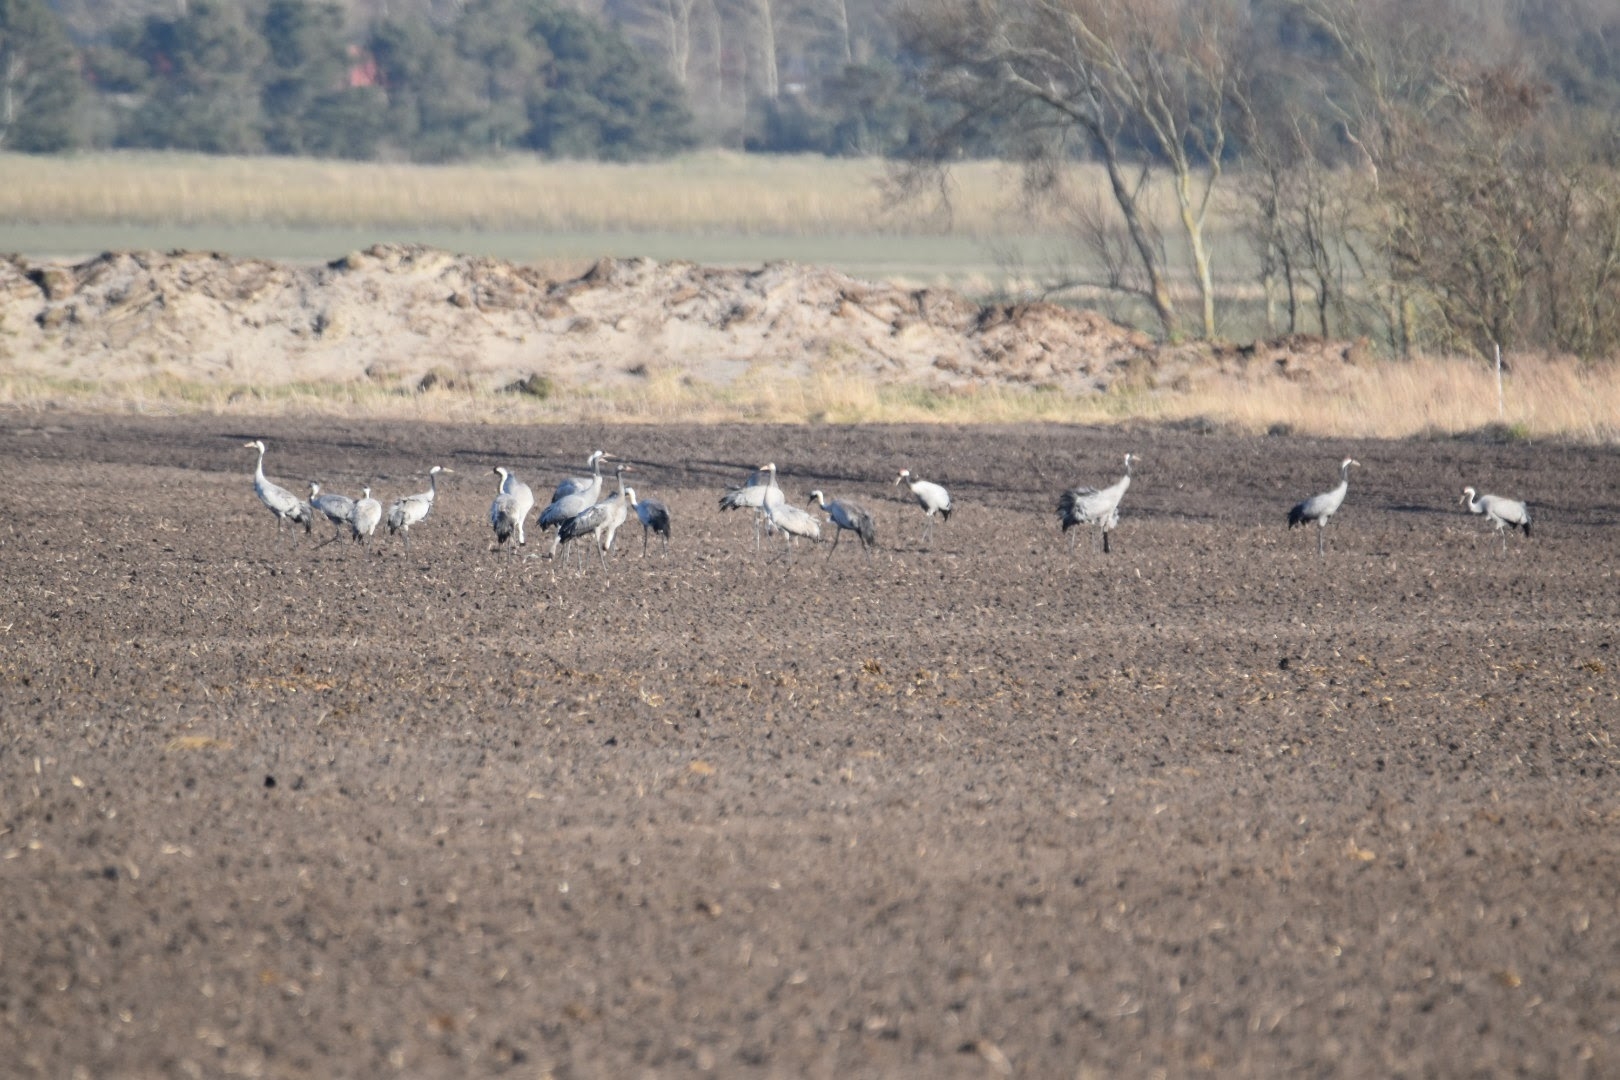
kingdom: Animalia
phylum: Chordata
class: Aves
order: Gruiformes
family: Gruidae
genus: Grus
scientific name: Grus grus
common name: Trane
